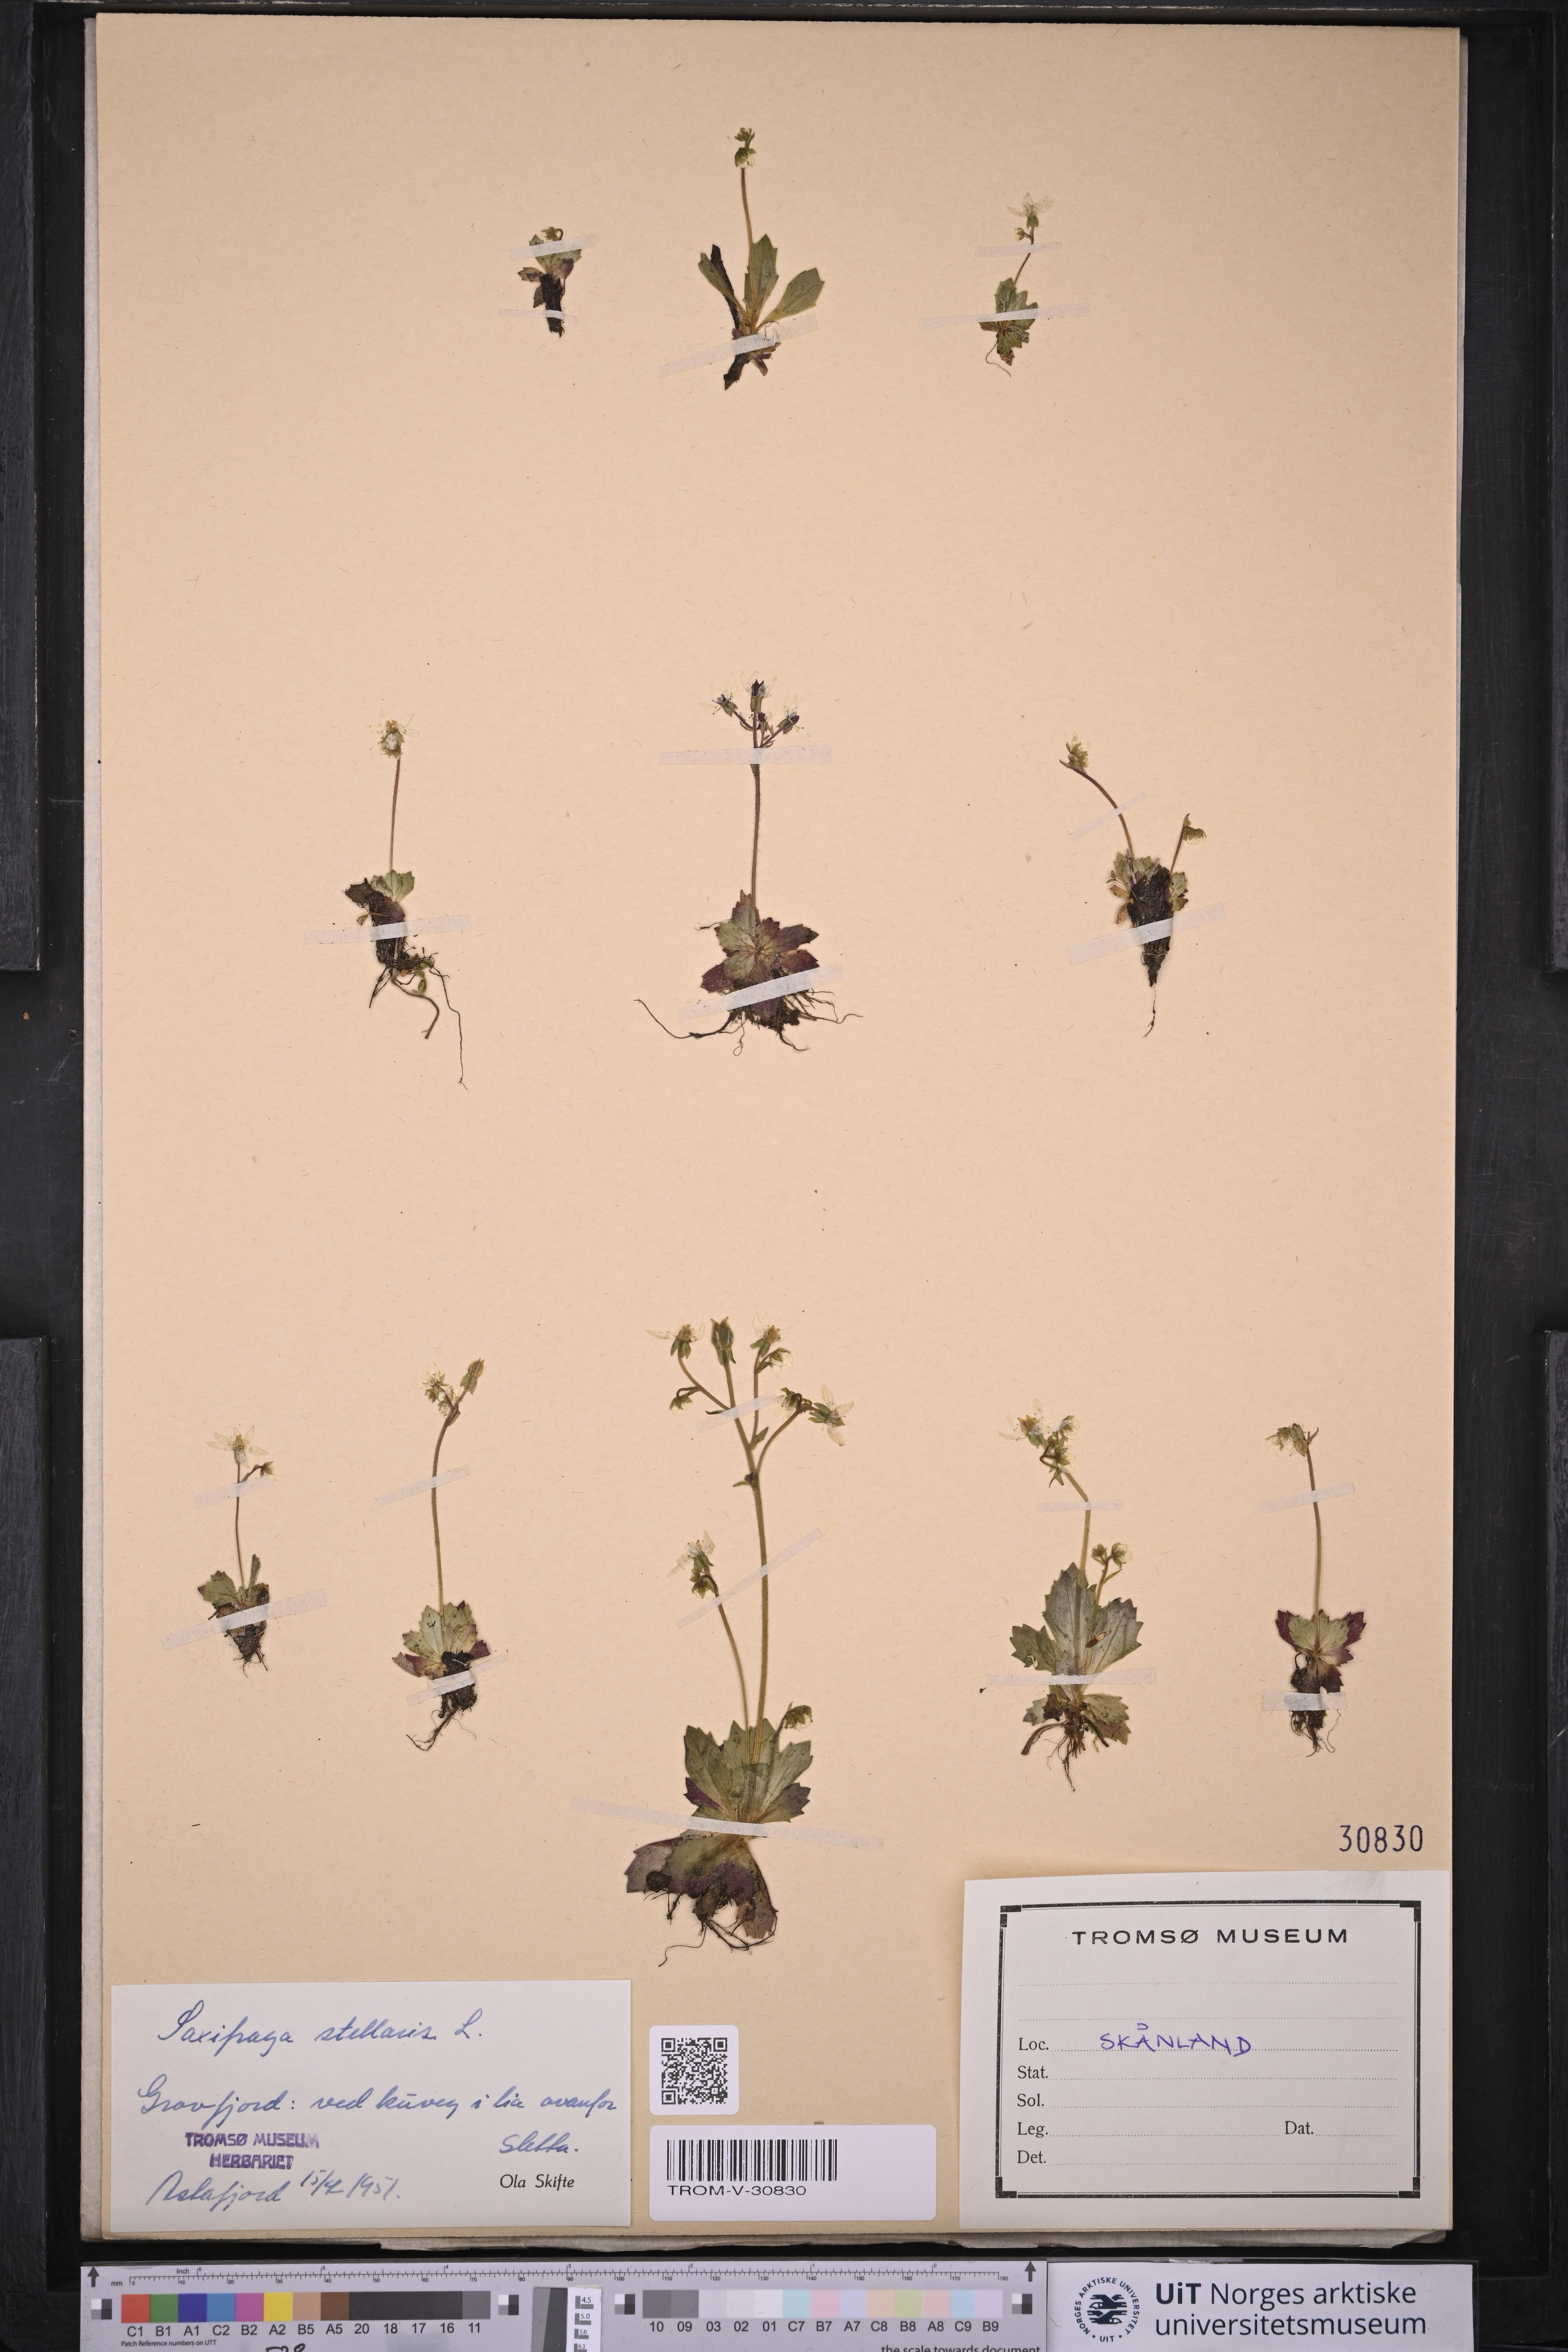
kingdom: Plantae
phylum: Tracheophyta
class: Magnoliopsida
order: Saxifragales
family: Saxifragaceae
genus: Micranthes
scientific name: Micranthes stellaris
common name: Starry saxifrage
